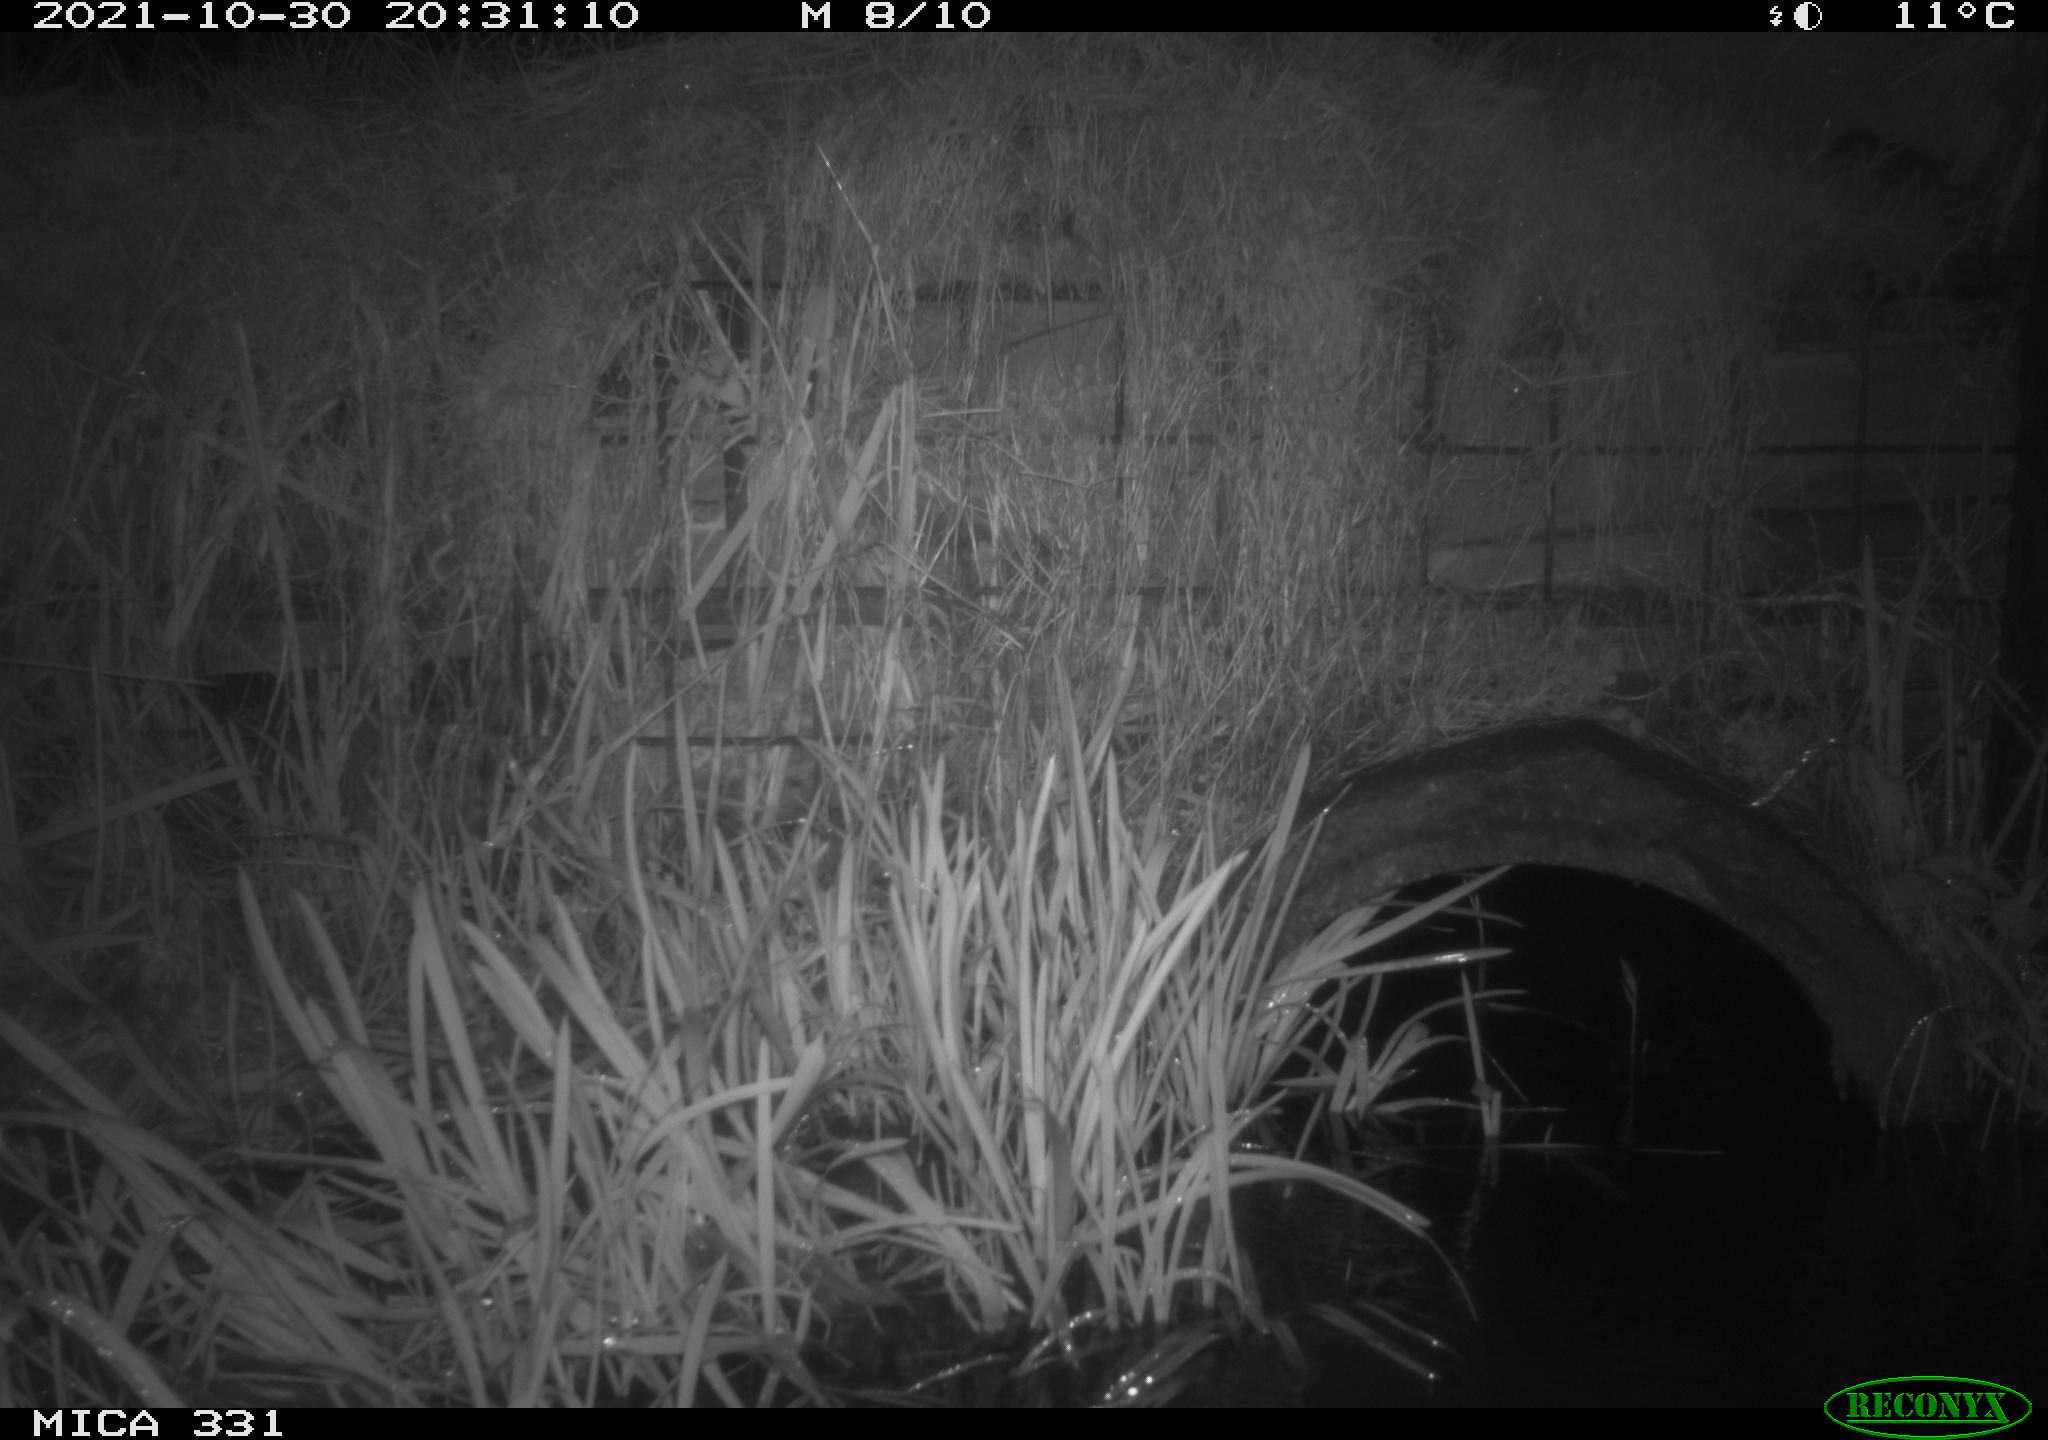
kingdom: Animalia
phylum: Chordata
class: Mammalia
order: Rodentia
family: Muridae
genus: Rattus
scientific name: Rattus norvegicus
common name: Brown rat
